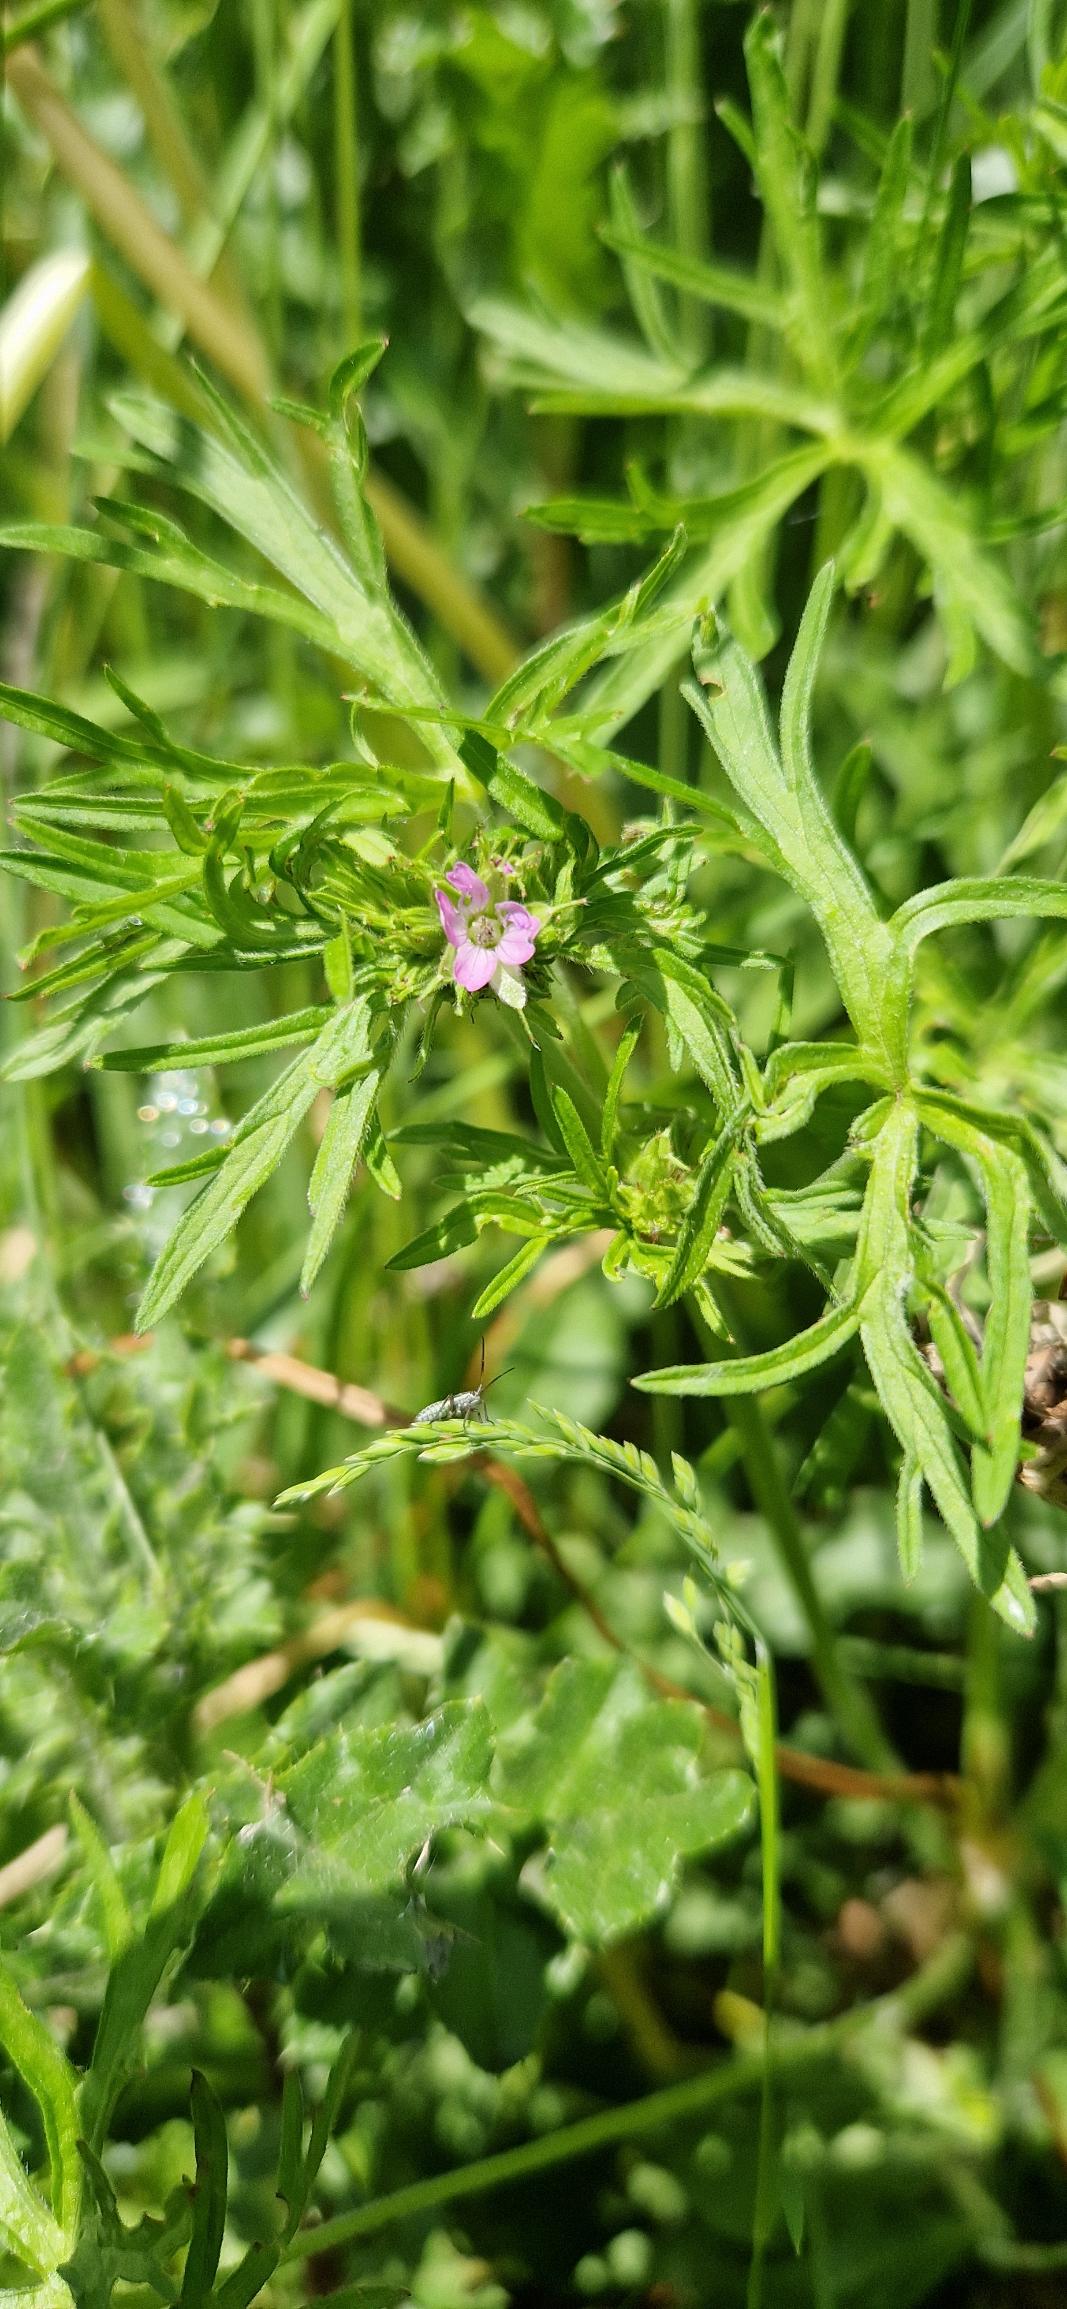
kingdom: Plantae
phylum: Tracheophyta
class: Magnoliopsida
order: Geraniales
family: Geraniaceae
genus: Geranium
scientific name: Geranium dissectum
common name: Kløftet storkenæb
